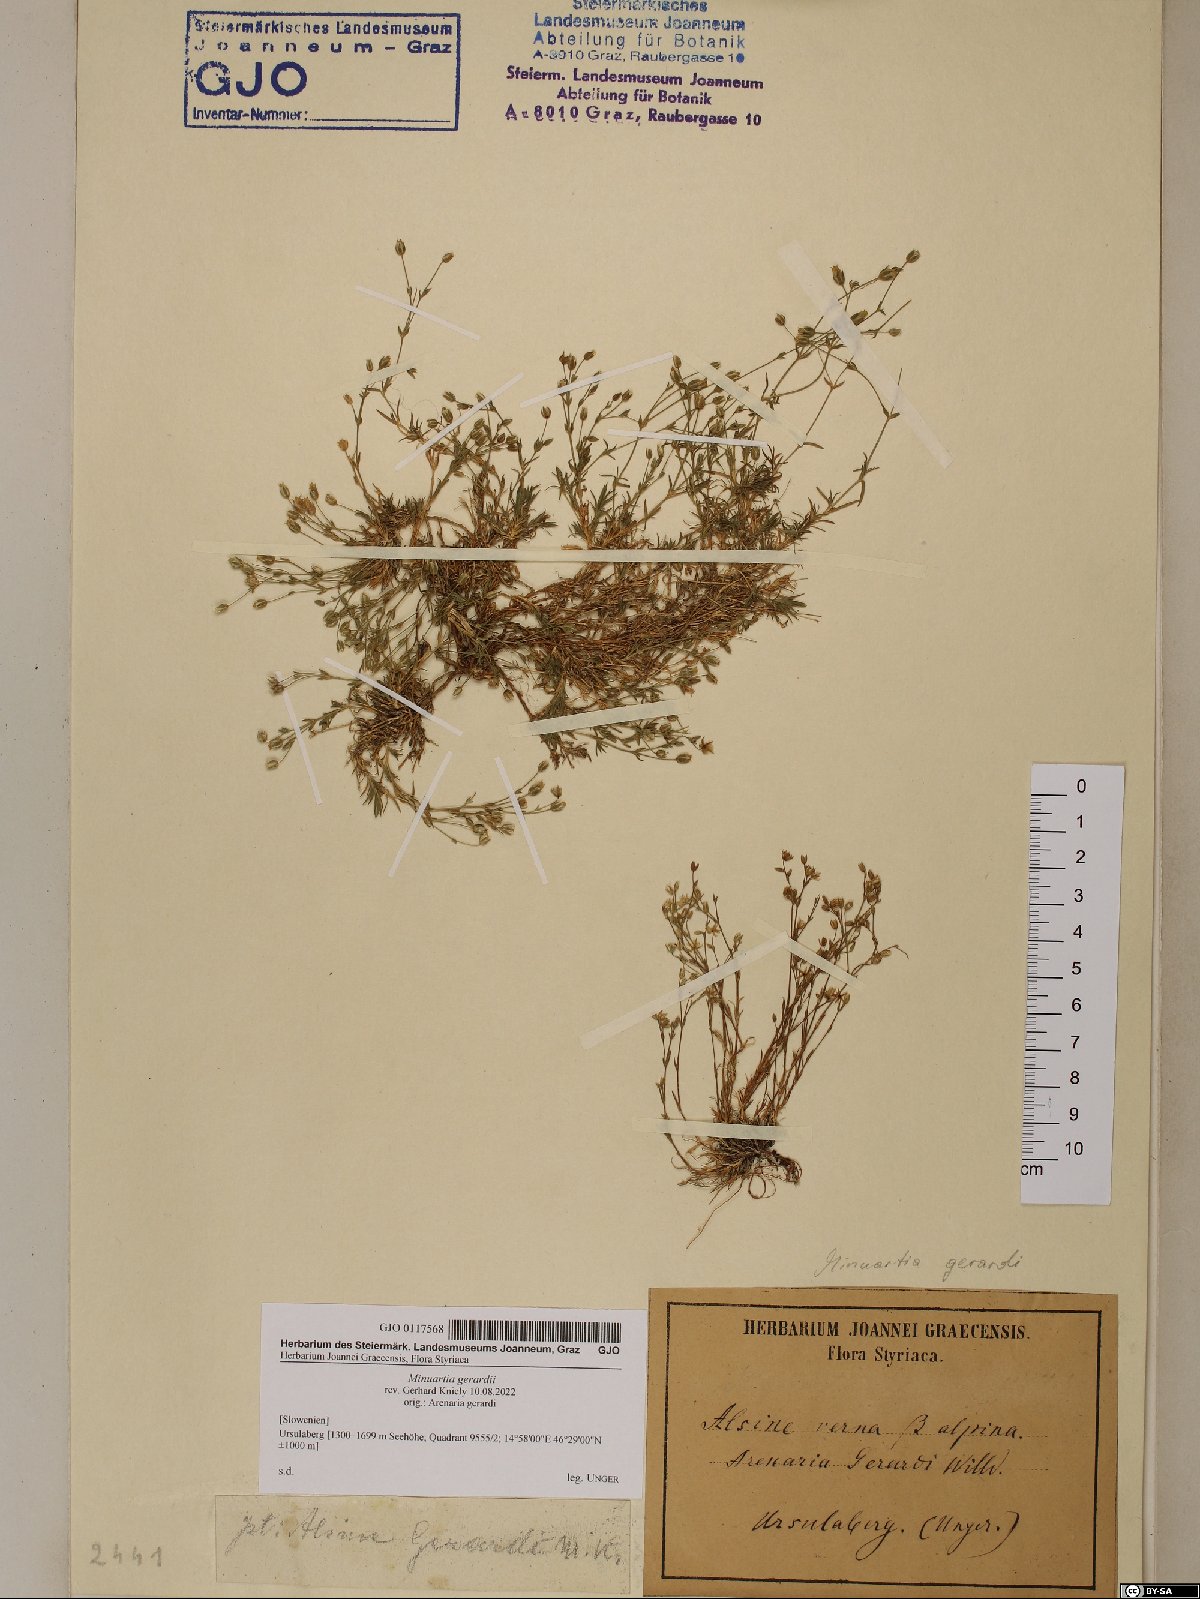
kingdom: Plantae
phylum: Tracheophyta
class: Magnoliopsida
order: Caryophyllales
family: Caryophyllaceae
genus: Sabulina
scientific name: Sabulina verna
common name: Spring sandwort
